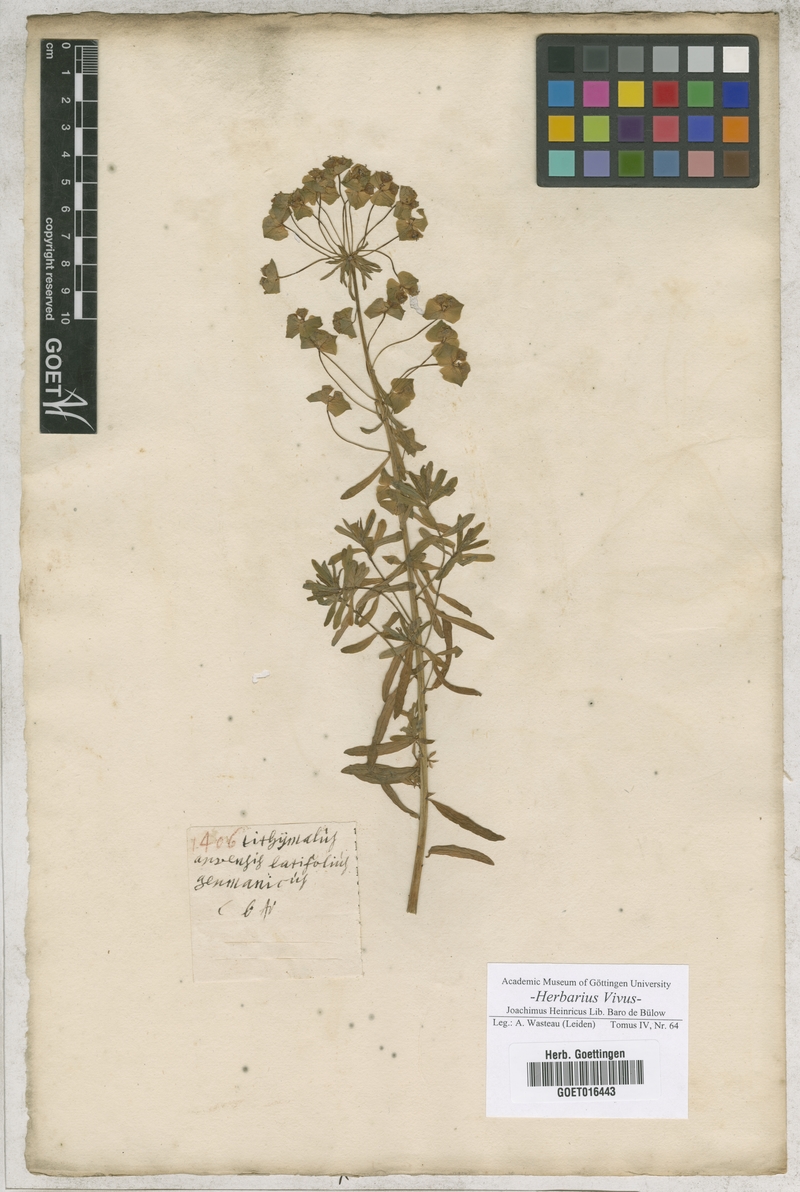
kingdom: Plantae
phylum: Tracheophyta
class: Magnoliopsida
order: Malpighiales
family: Euphorbiaceae
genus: Euphorbia
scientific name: Euphorbia platyphyllos
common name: Broad-leaved spurge
